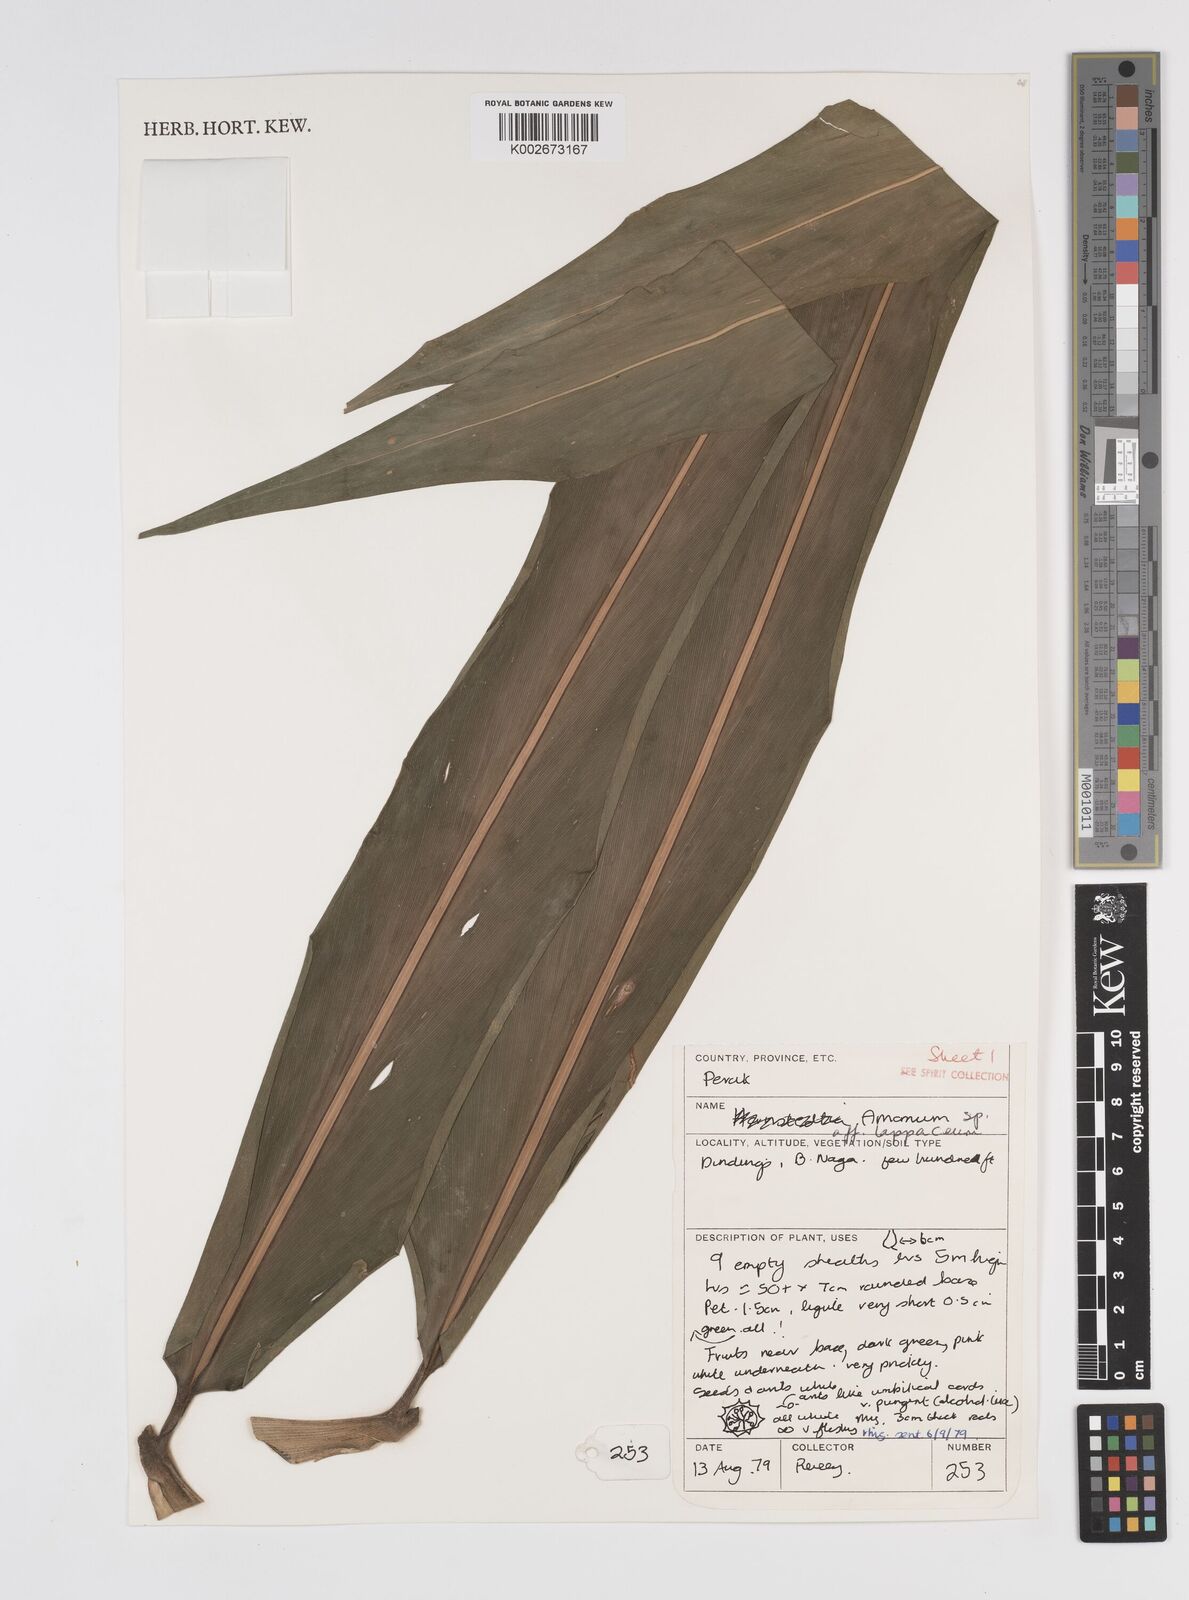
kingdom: Plantae
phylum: Tracheophyta
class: Liliopsida
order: Zingiberales
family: Zingiberaceae
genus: Meistera
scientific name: Meistera lappacea
